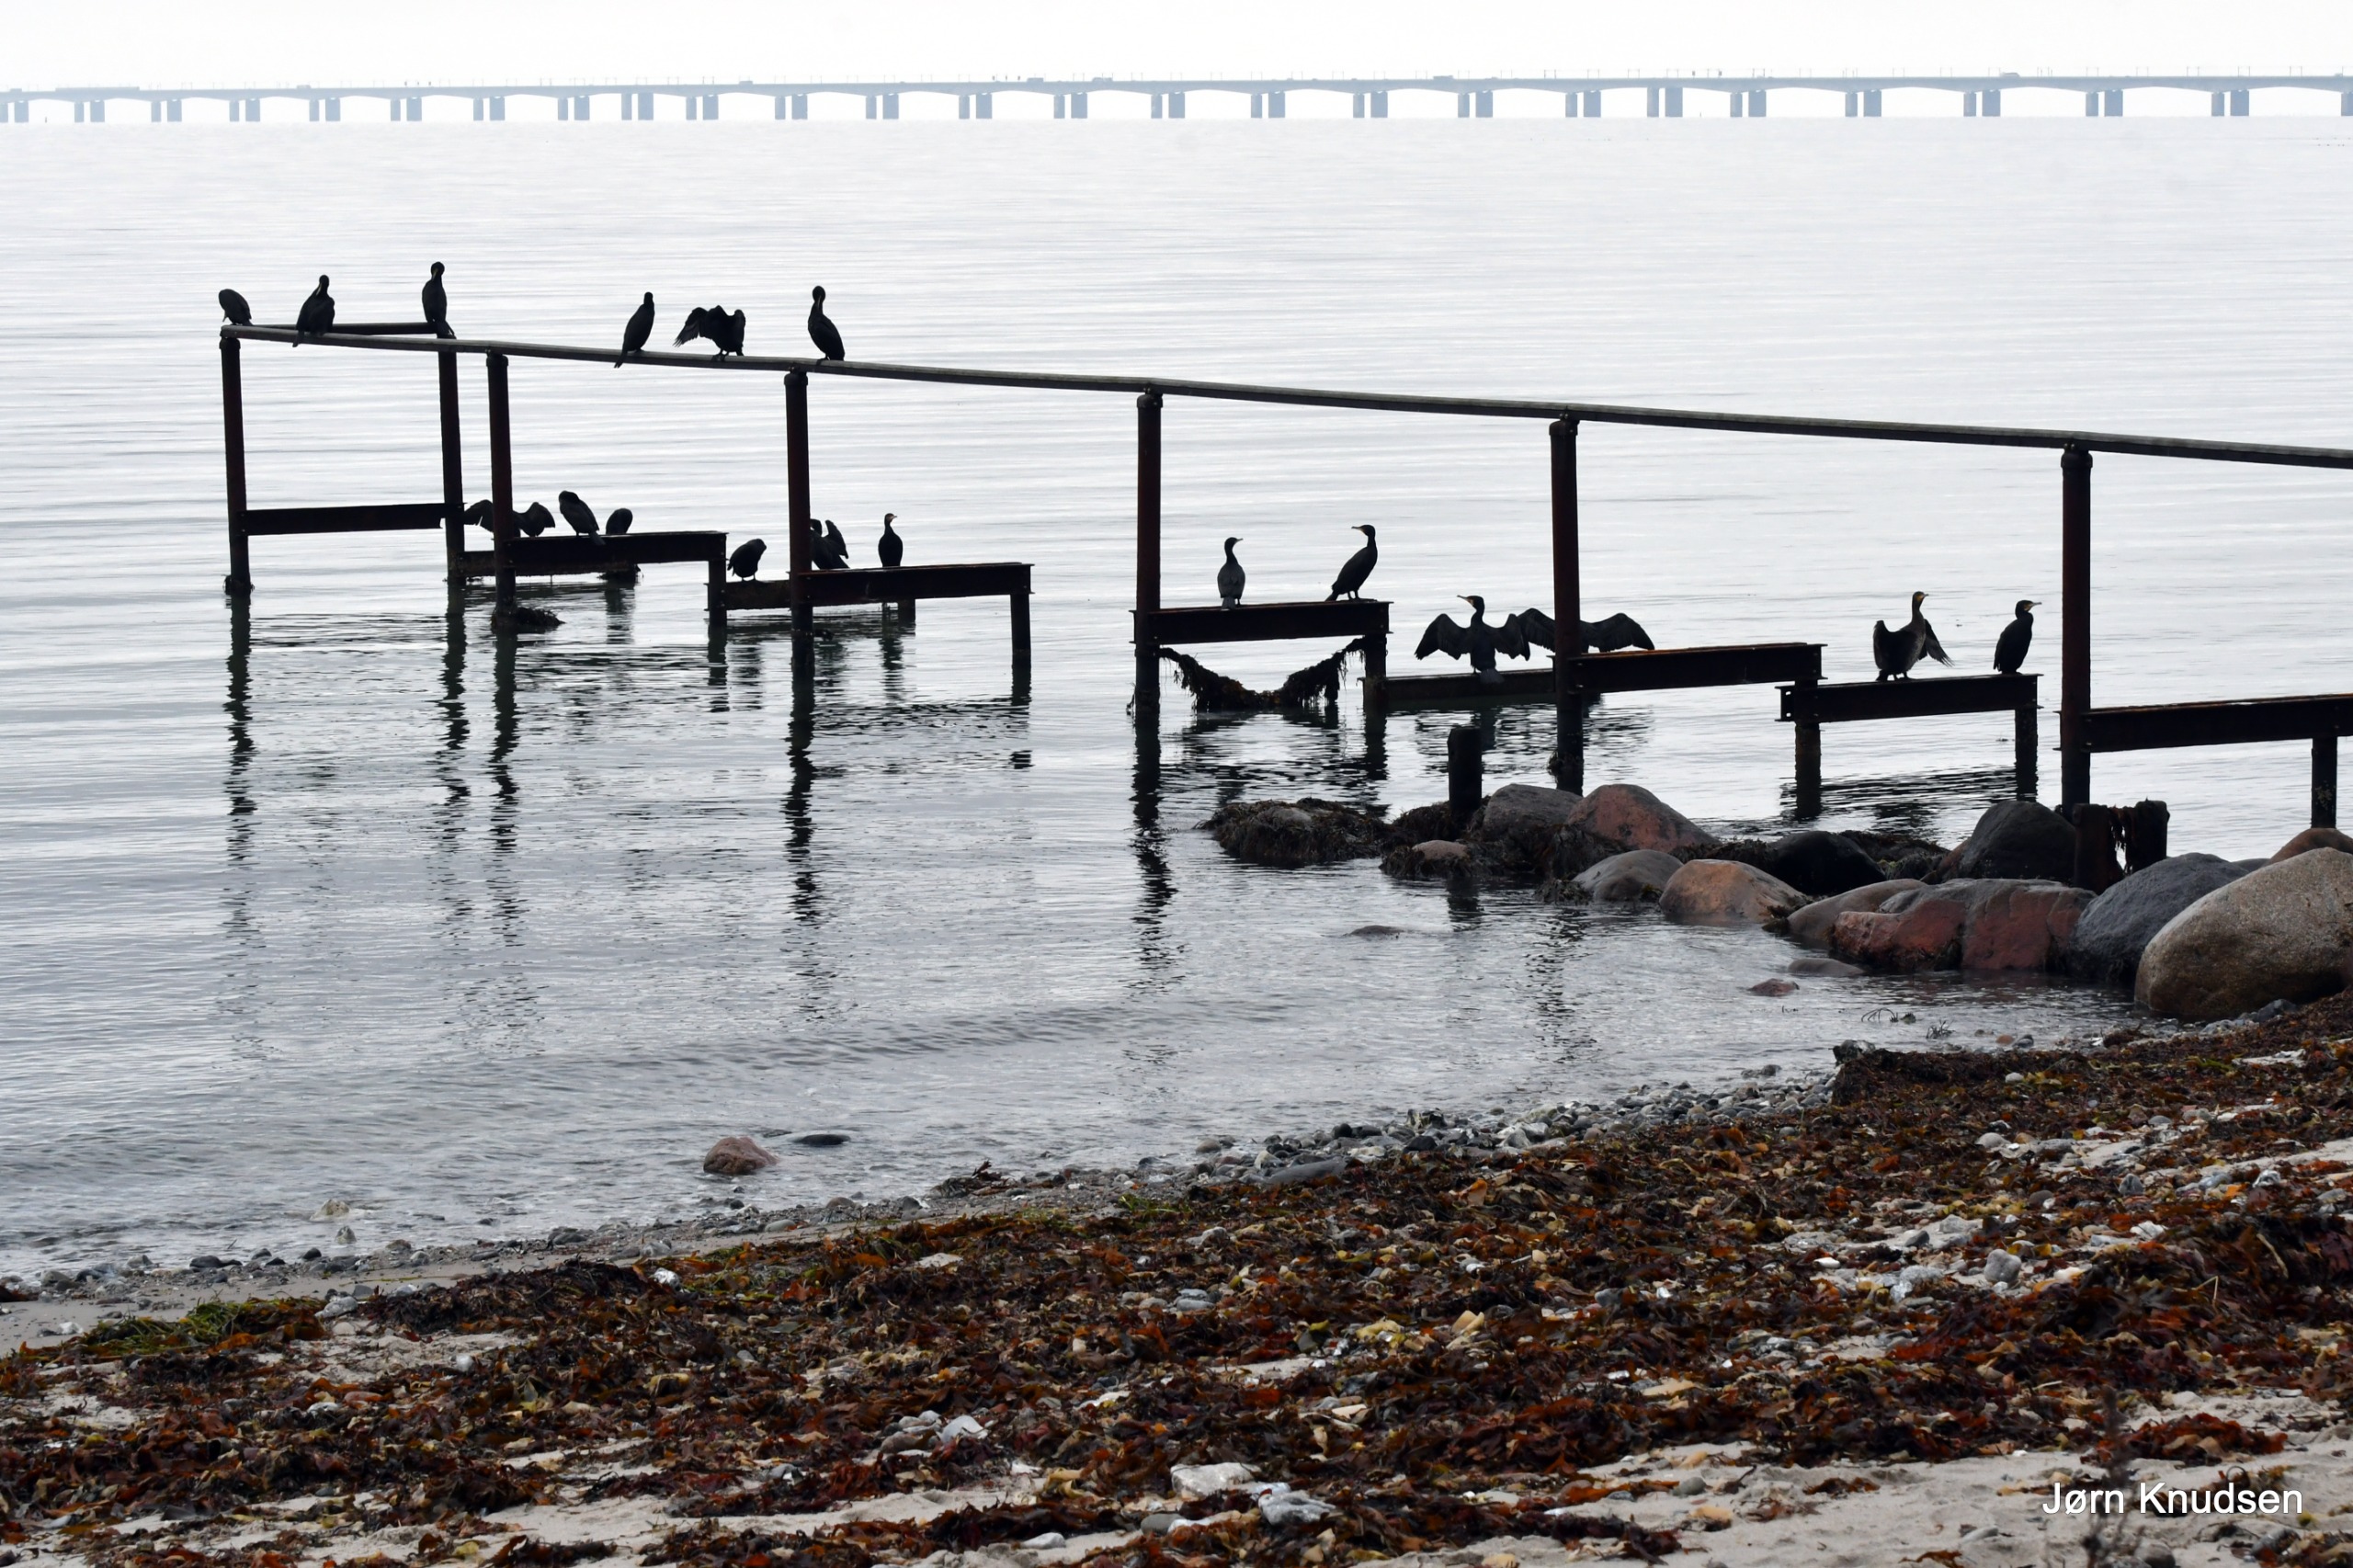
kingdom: Animalia
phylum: Chordata
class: Aves
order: Suliformes
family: Phalacrocoracidae
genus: Phalacrocorax
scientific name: Phalacrocorax carbo
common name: Skarv
